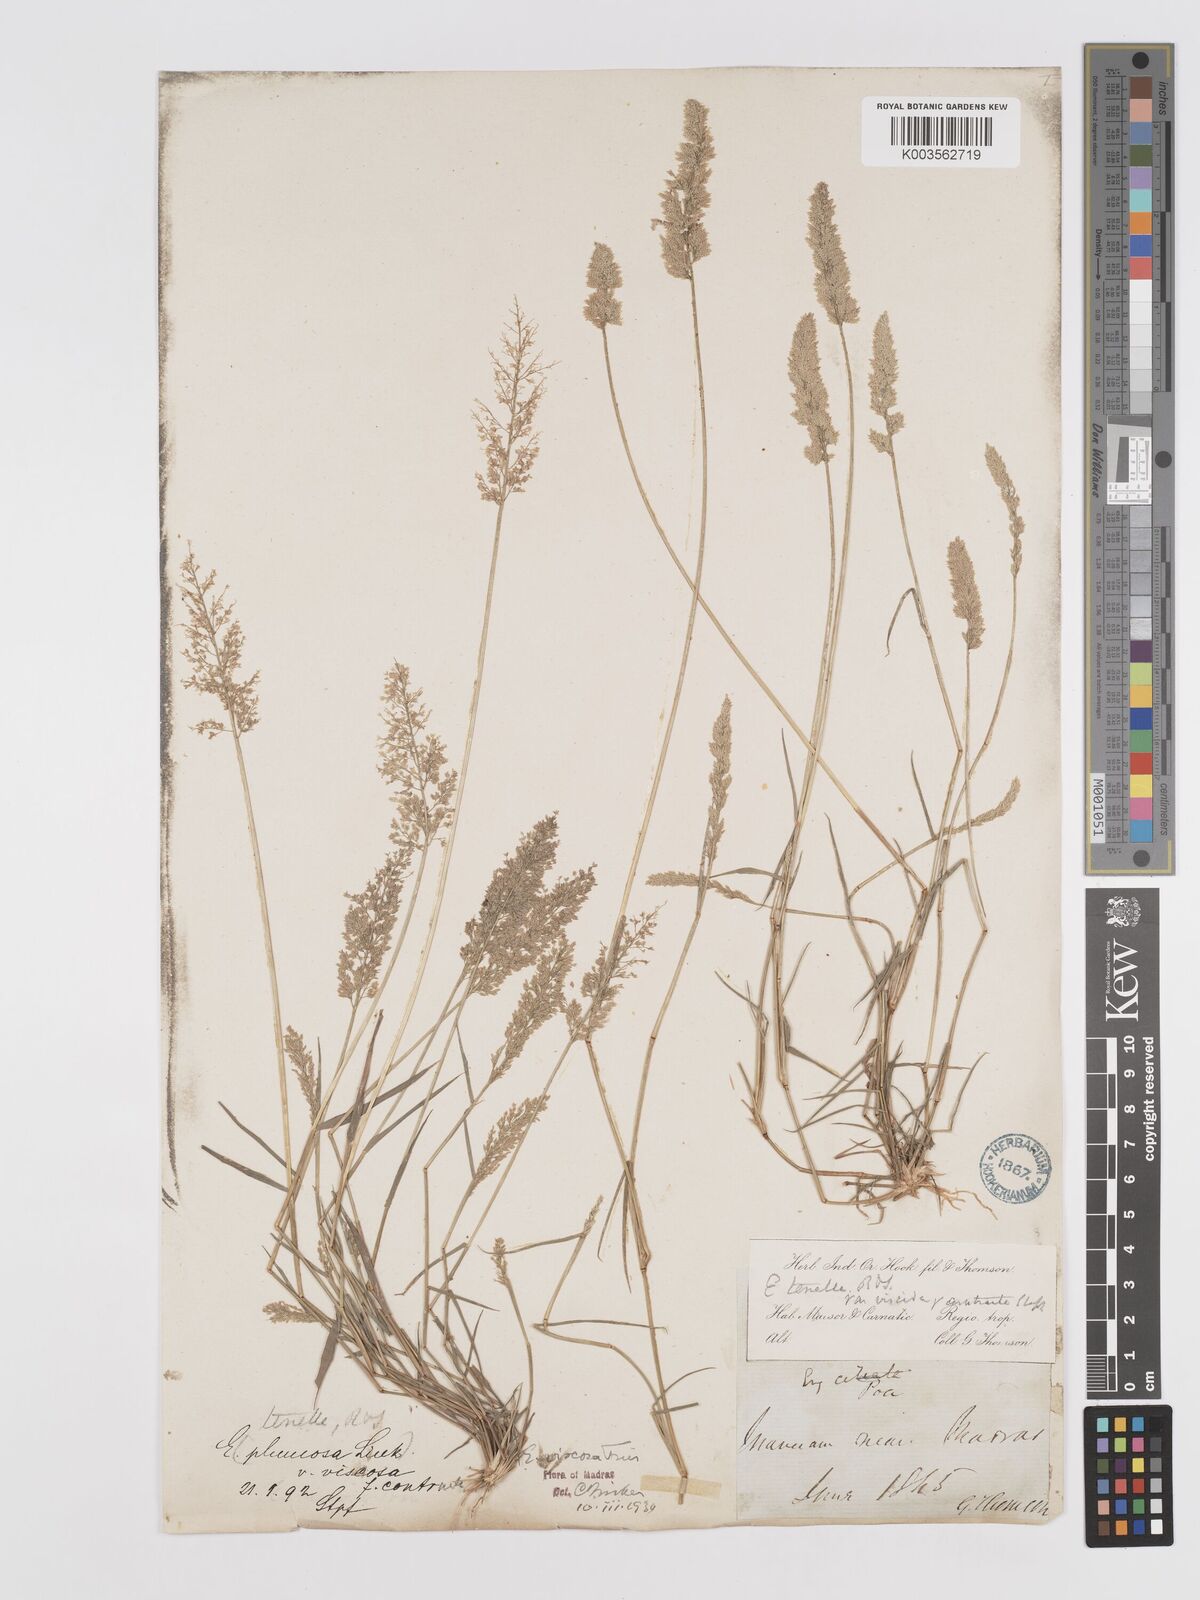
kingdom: Plantae
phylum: Tracheophyta
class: Liliopsida
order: Poales
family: Poaceae
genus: Eragrostis
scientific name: Eragrostis riparia
